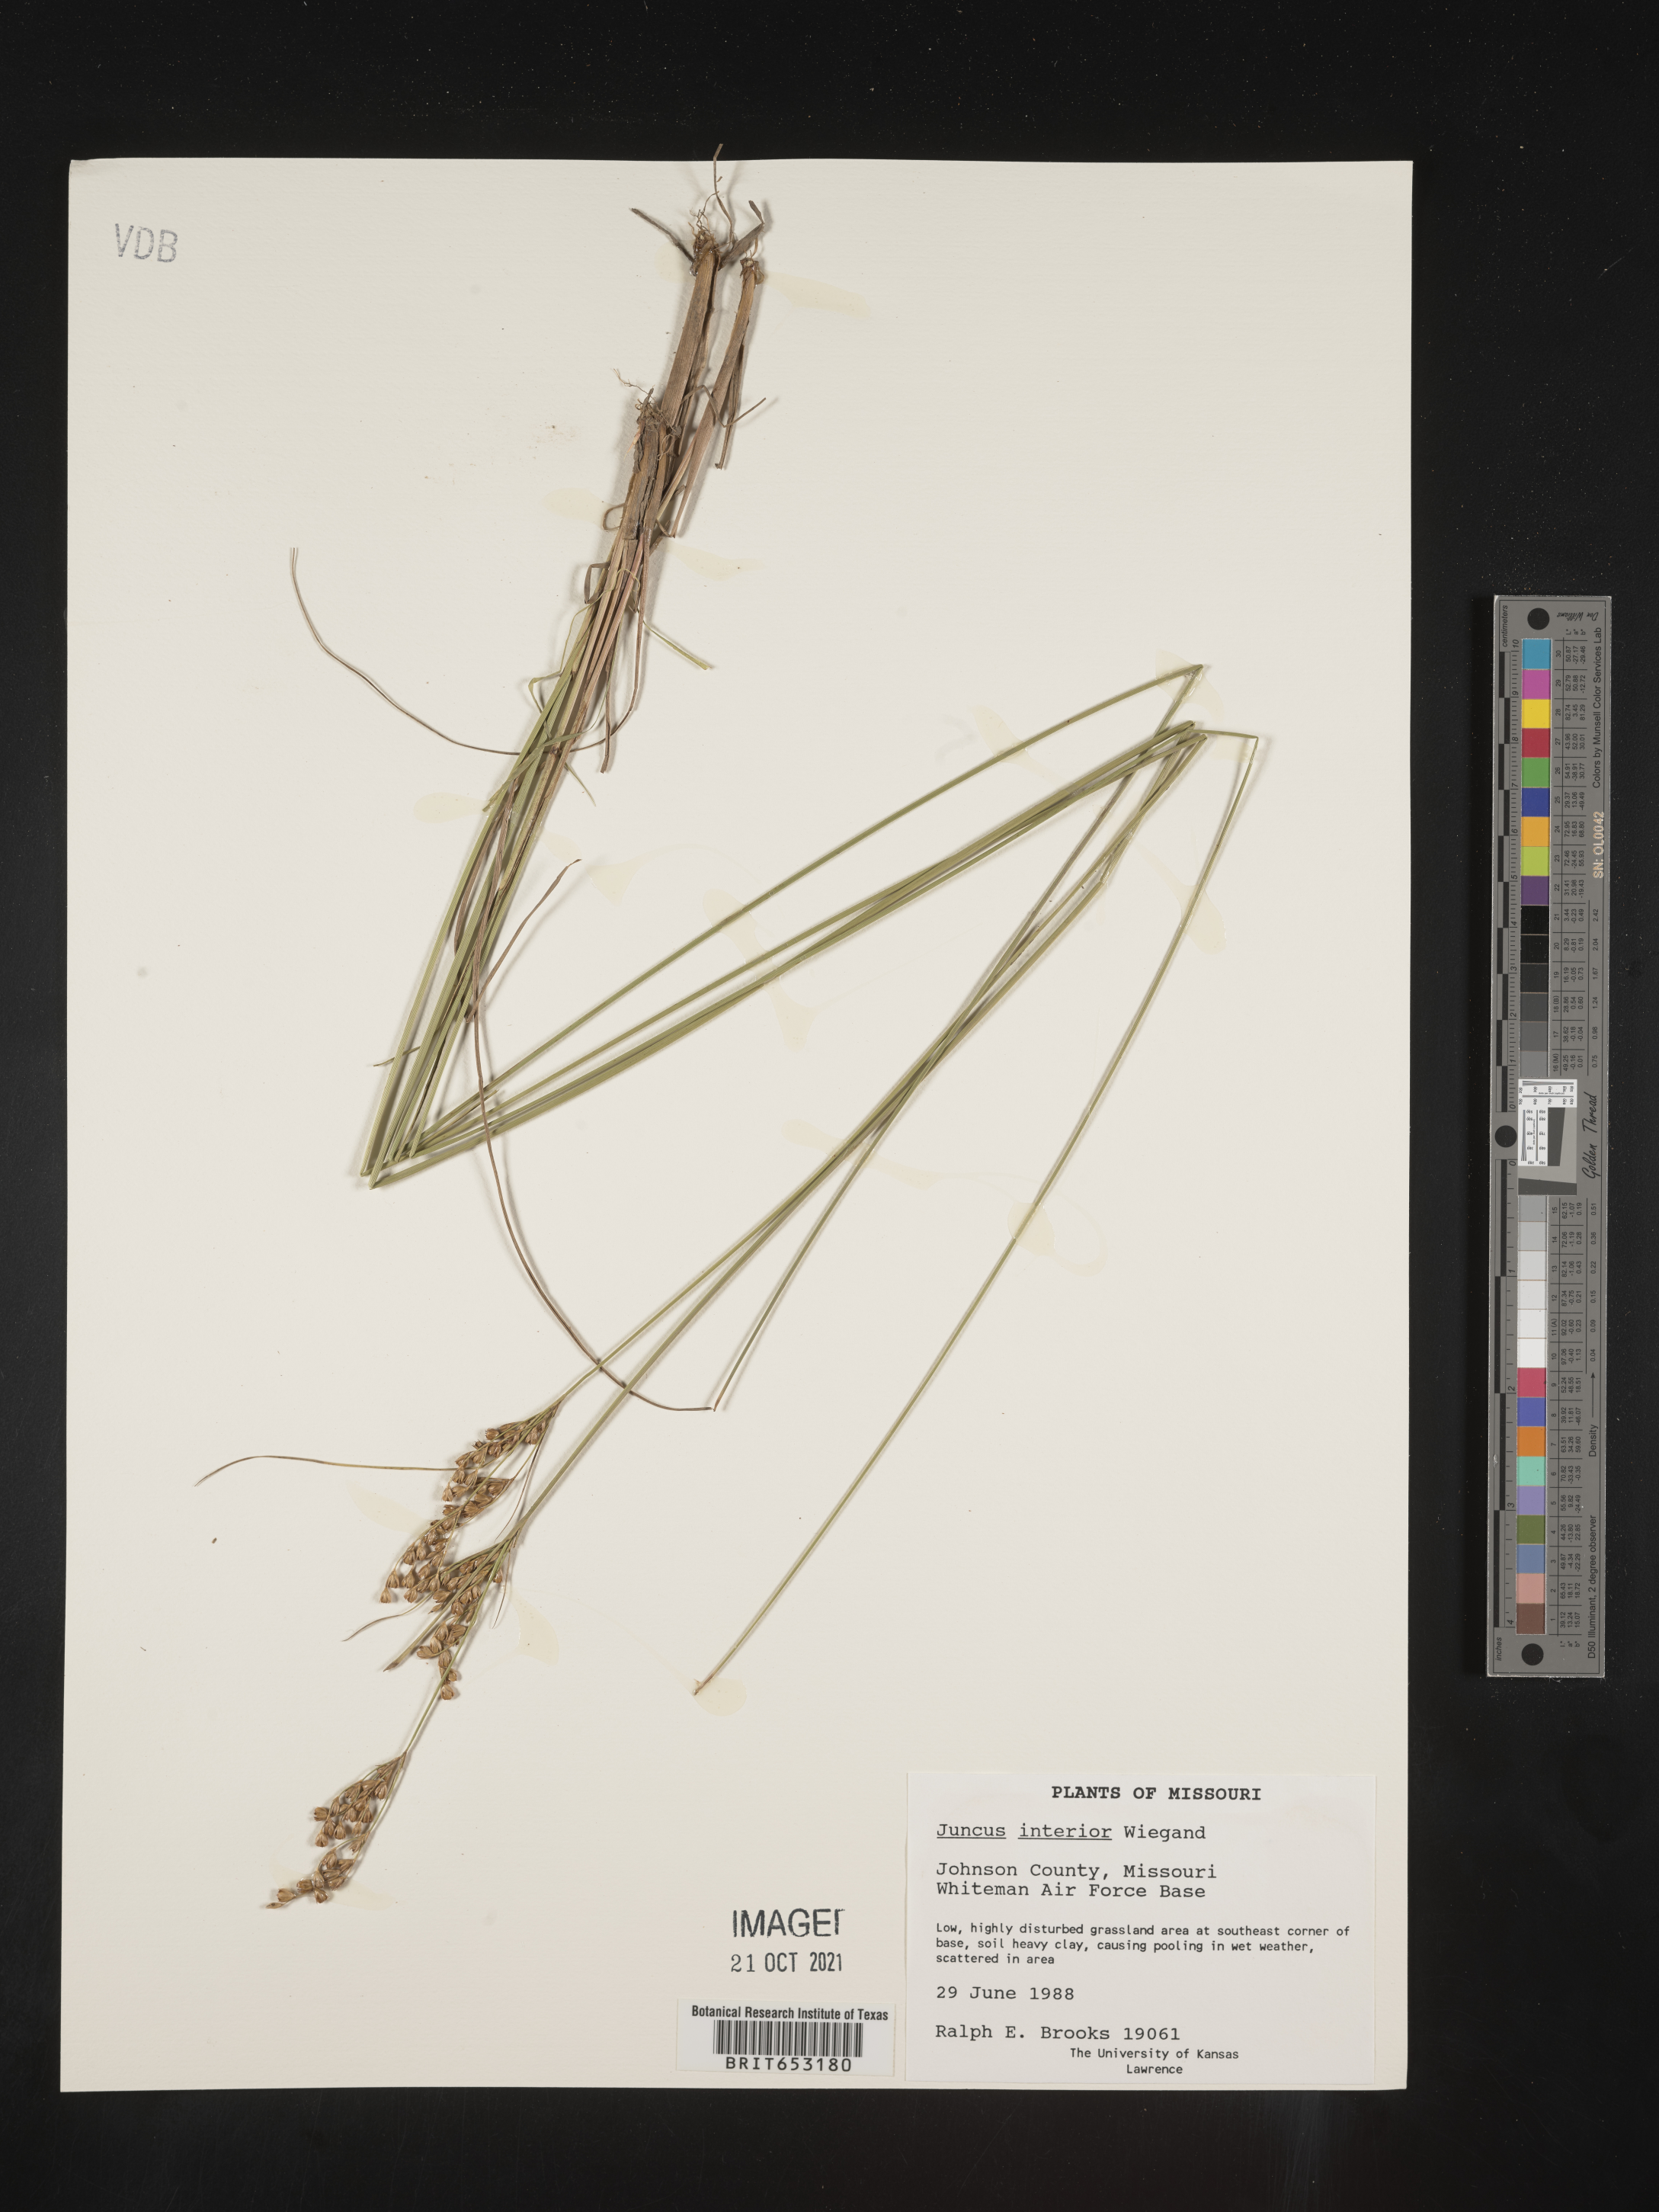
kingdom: Plantae
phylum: Tracheophyta
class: Liliopsida
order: Poales
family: Juncaceae
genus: Juncus
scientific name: Juncus interior
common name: Interior rush
